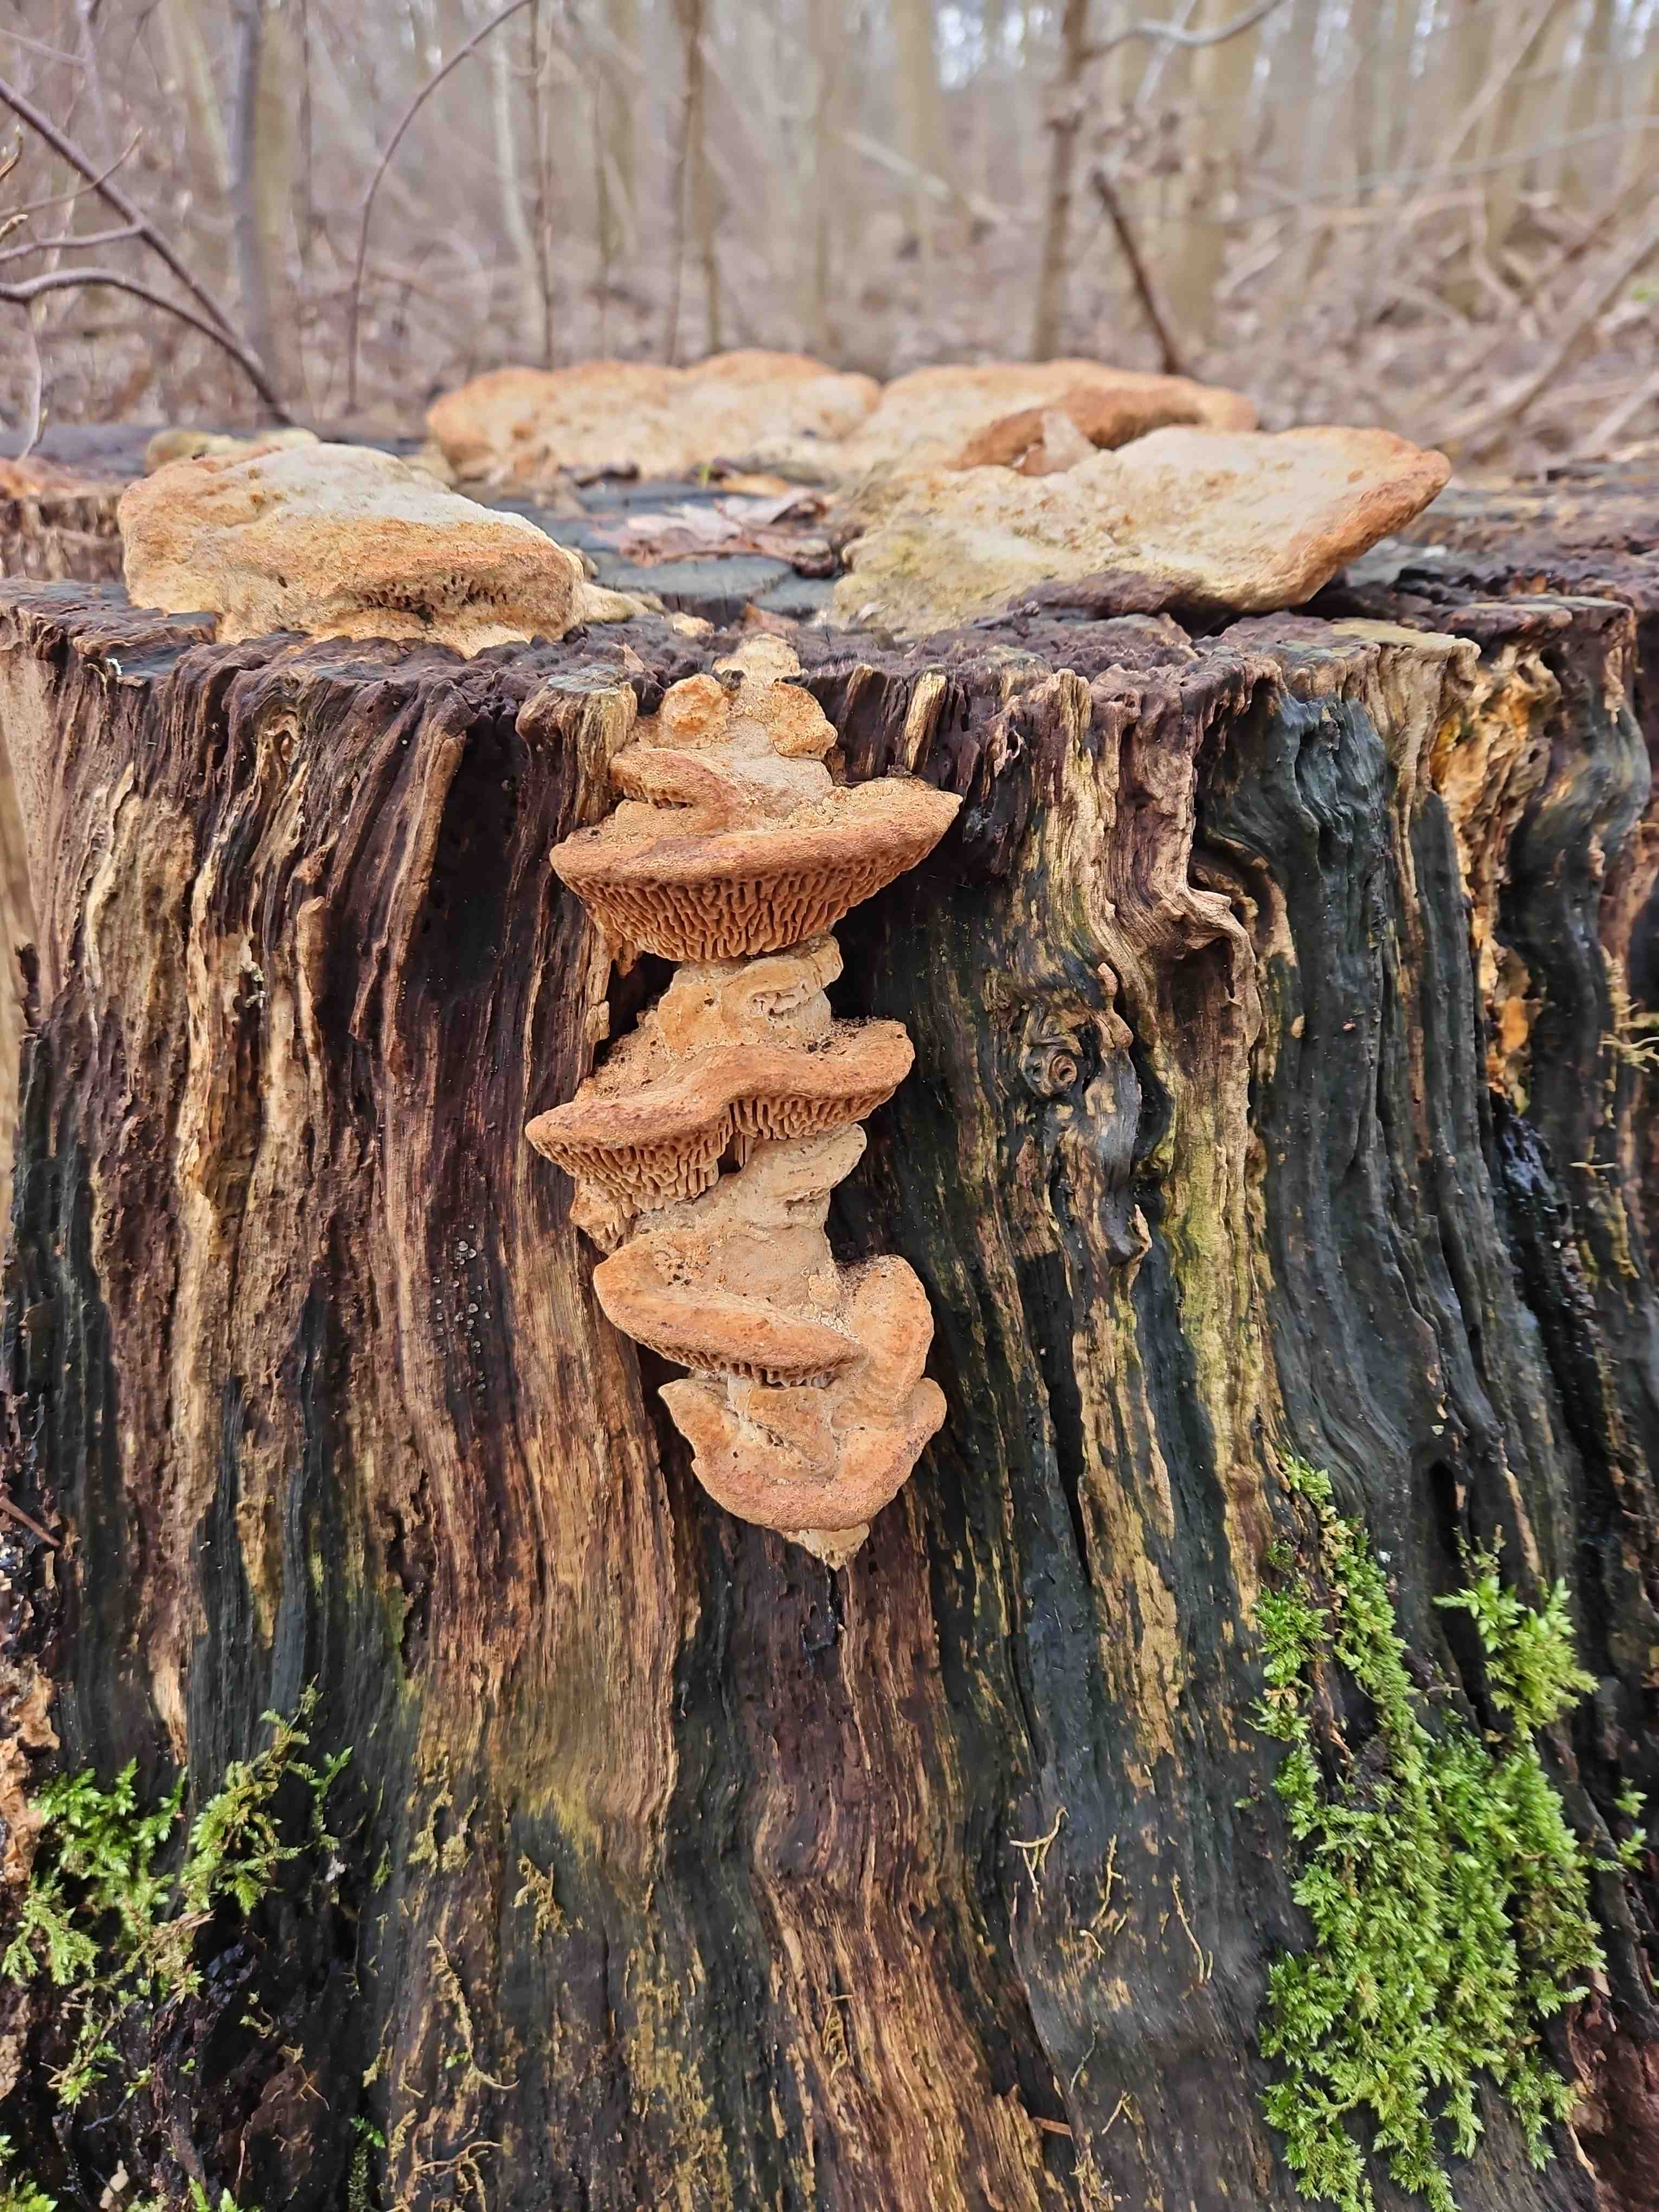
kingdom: Fungi
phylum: Basidiomycota
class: Agaricomycetes
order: Polyporales
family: Fomitopsidaceae
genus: Daedalea
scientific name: Daedalea quercina
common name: ege-labyrintsvamp
